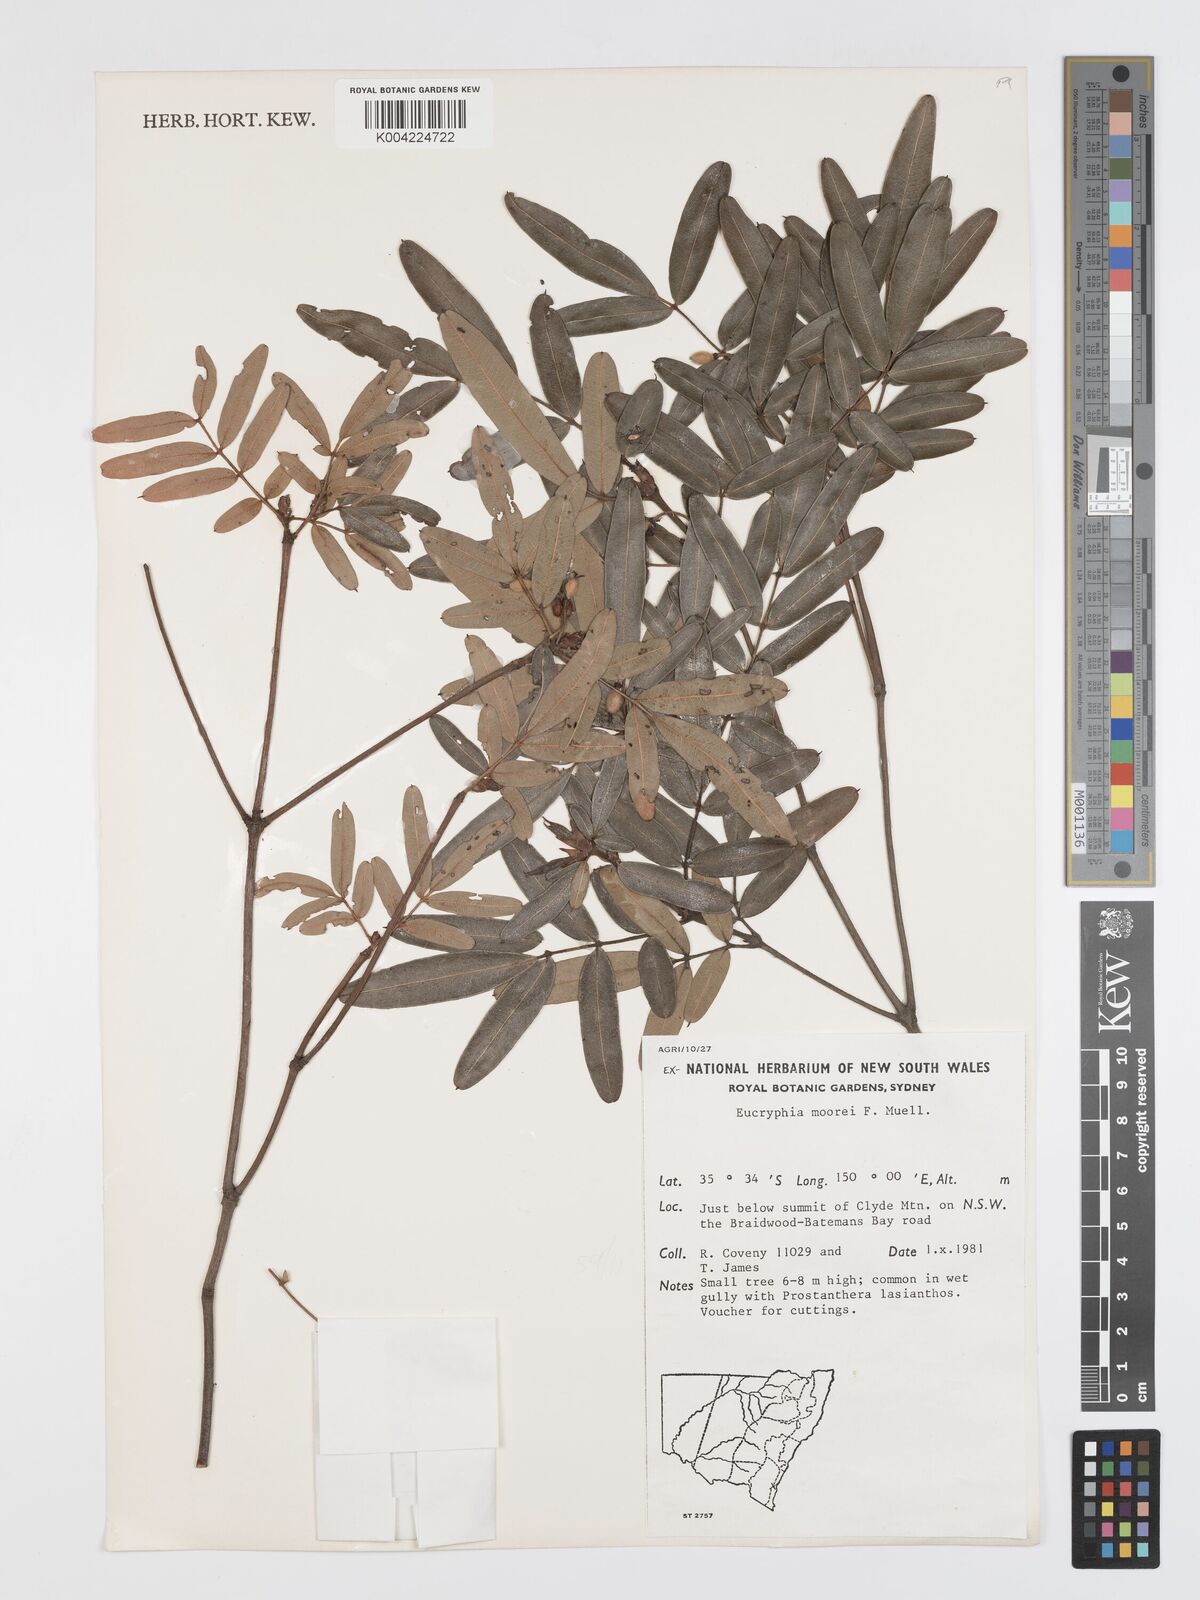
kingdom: Plantae
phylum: Tracheophyta
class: Magnoliopsida
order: Oxalidales
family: Cunoniaceae
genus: Eucryphia
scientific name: Eucryphia moorei
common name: Acacia-plum
